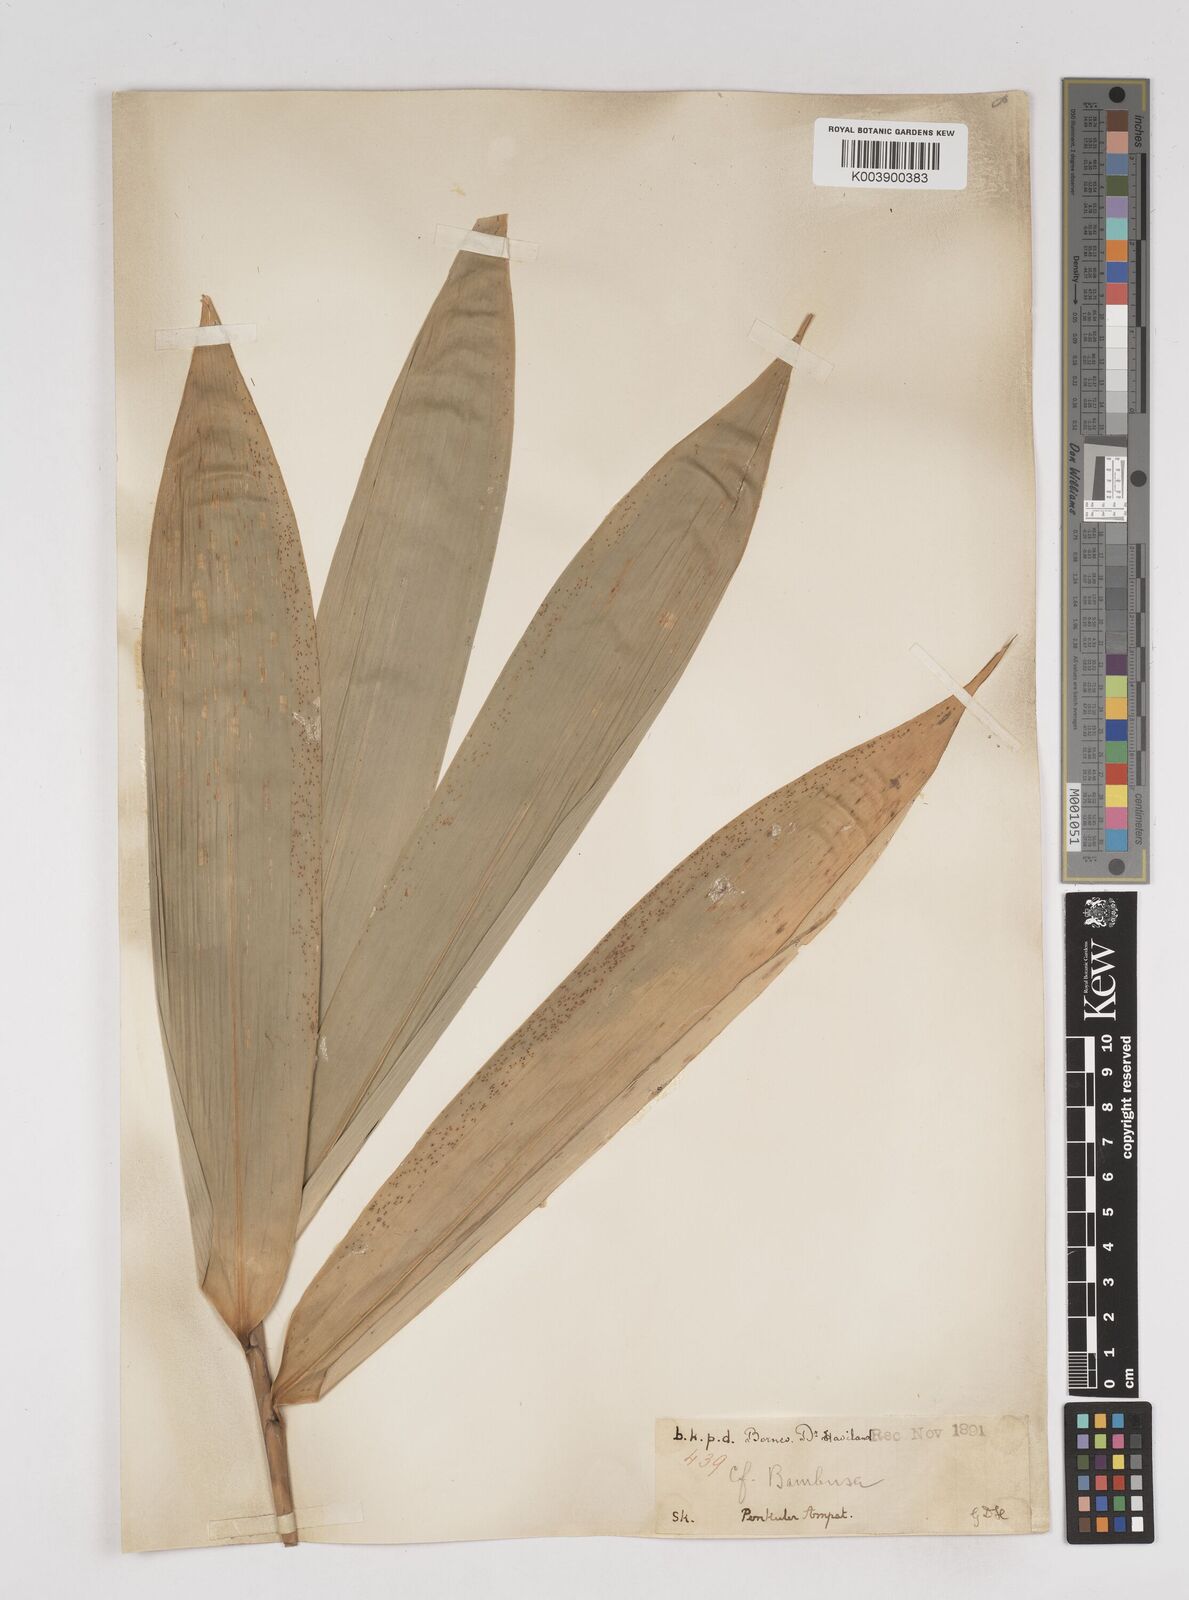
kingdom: Plantae
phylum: Tracheophyta
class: Liliopsida
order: Poales
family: Poaceae
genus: Gigantochloa
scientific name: Gigantochloa levis
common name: Smooth-shoot gigantochloa
